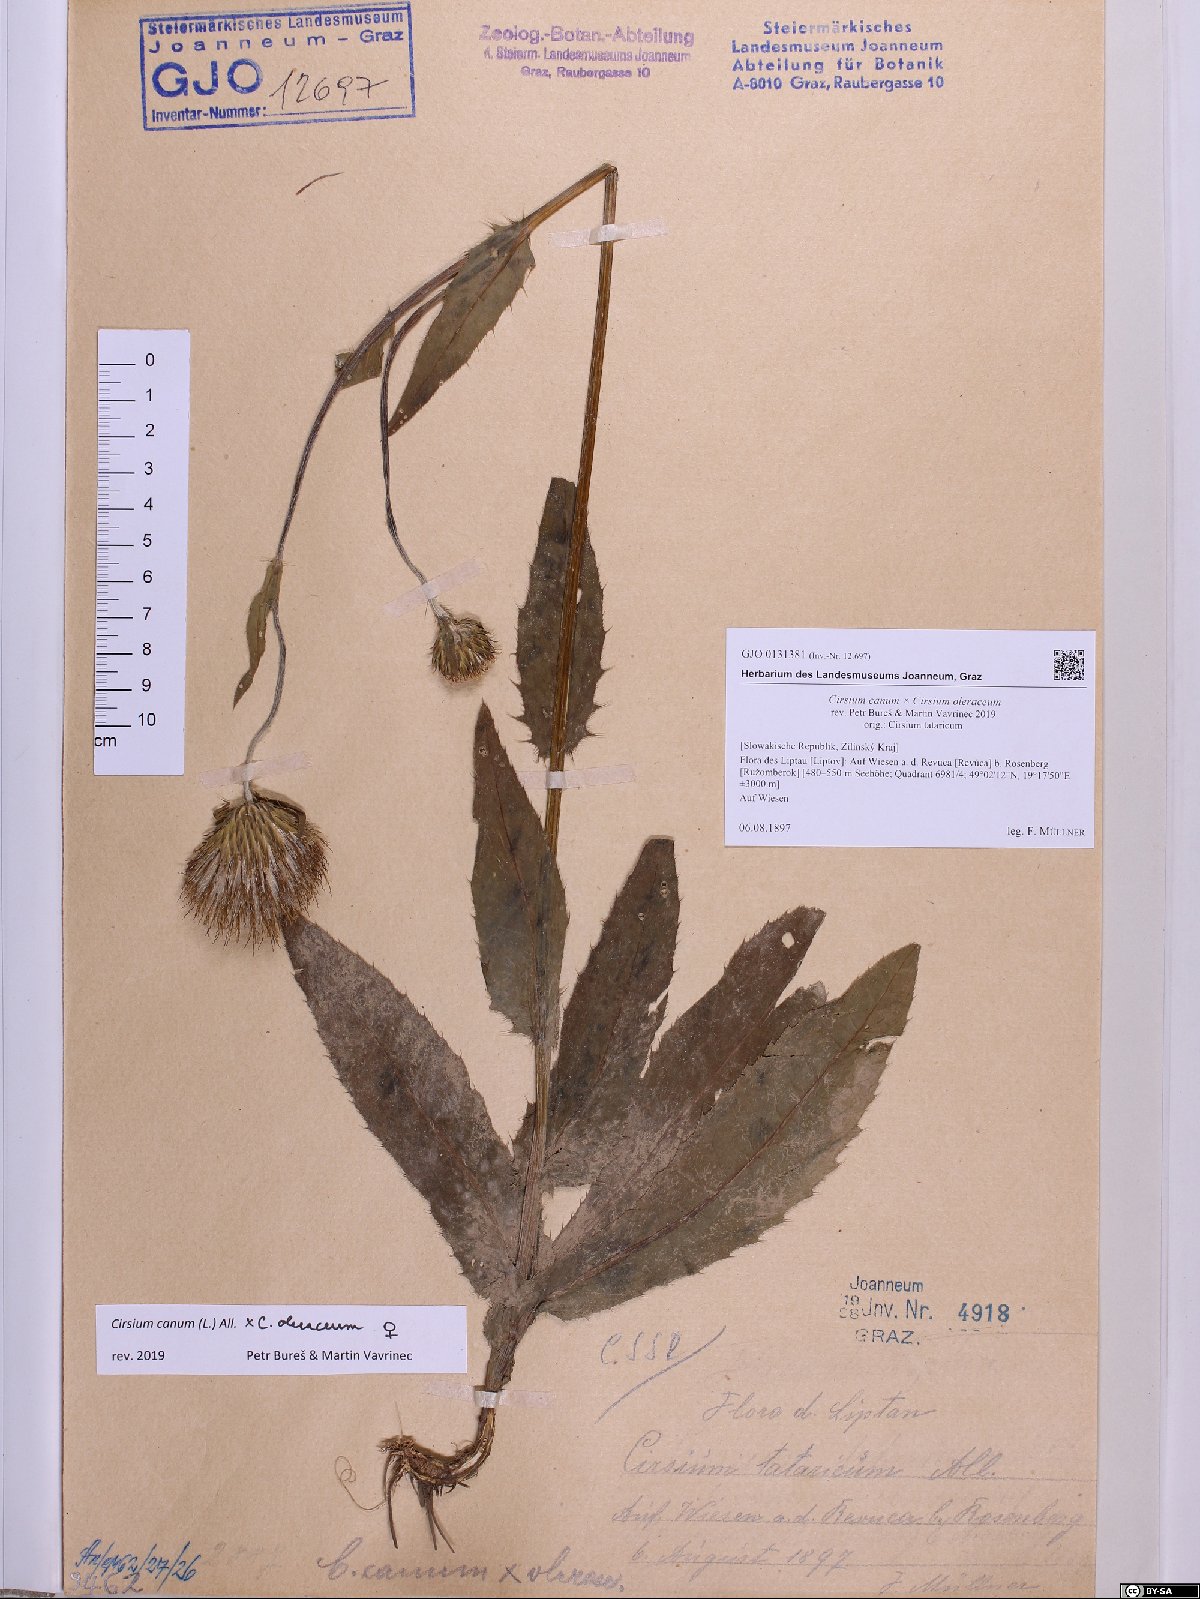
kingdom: Plantae
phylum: Tracheophyta
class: Magnoliopsida
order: Asterales
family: Asteraceae
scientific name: Asteraceae
